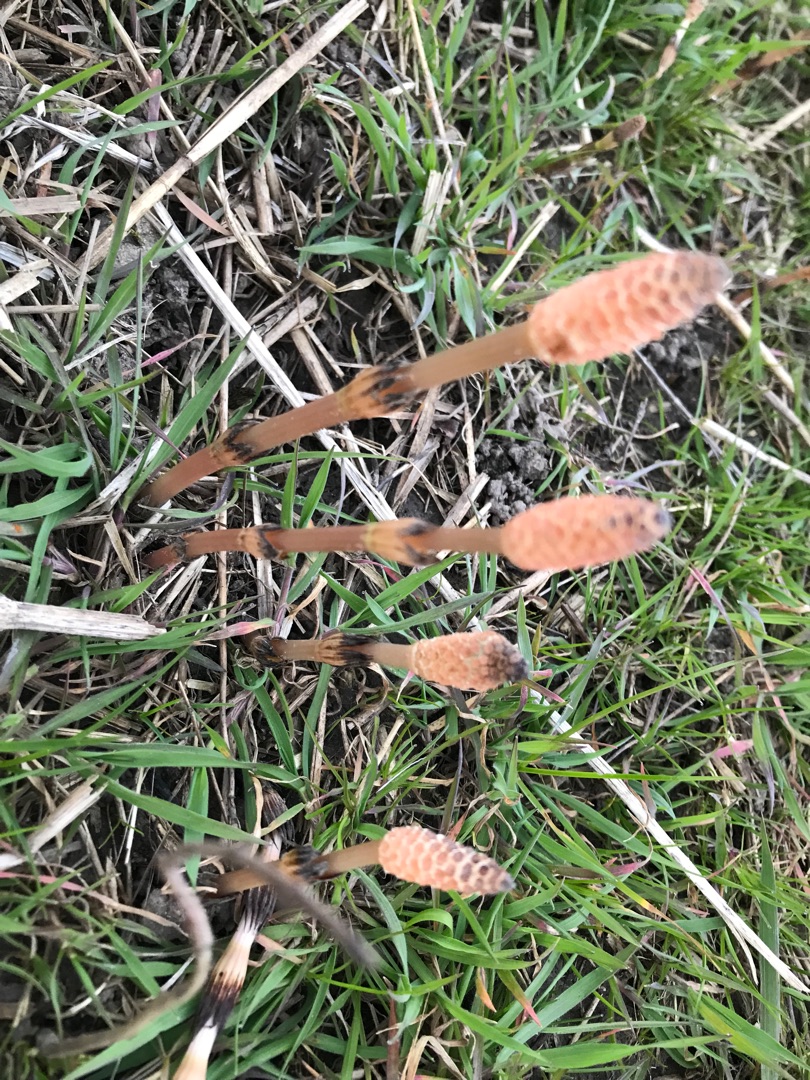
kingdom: Plantae
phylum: Tracheophyta
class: Polypodiopsida
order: Equisetales
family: Equisetaceae
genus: Equisetum
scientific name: Equisetum arvense
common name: Ager-padderok
